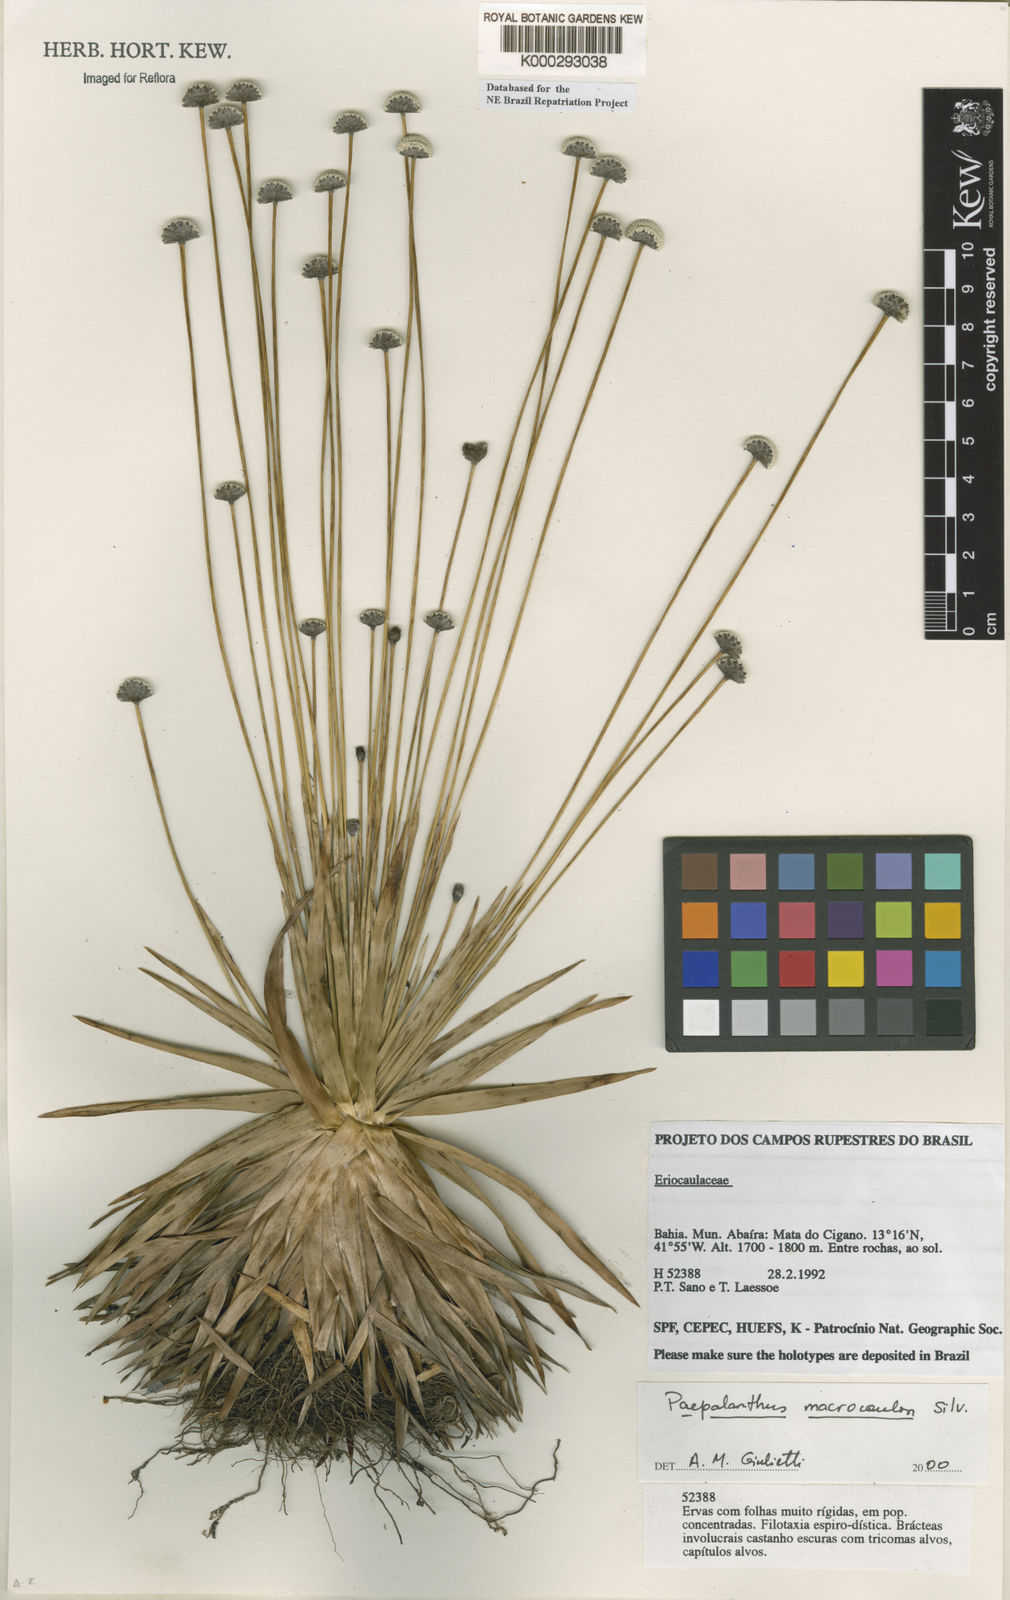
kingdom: Plantae
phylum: Tracheophyta
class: Liliopsida
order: Poales
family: Eriocaulaceae
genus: Paepalanthus
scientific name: Paepalanthus macrocaulon
